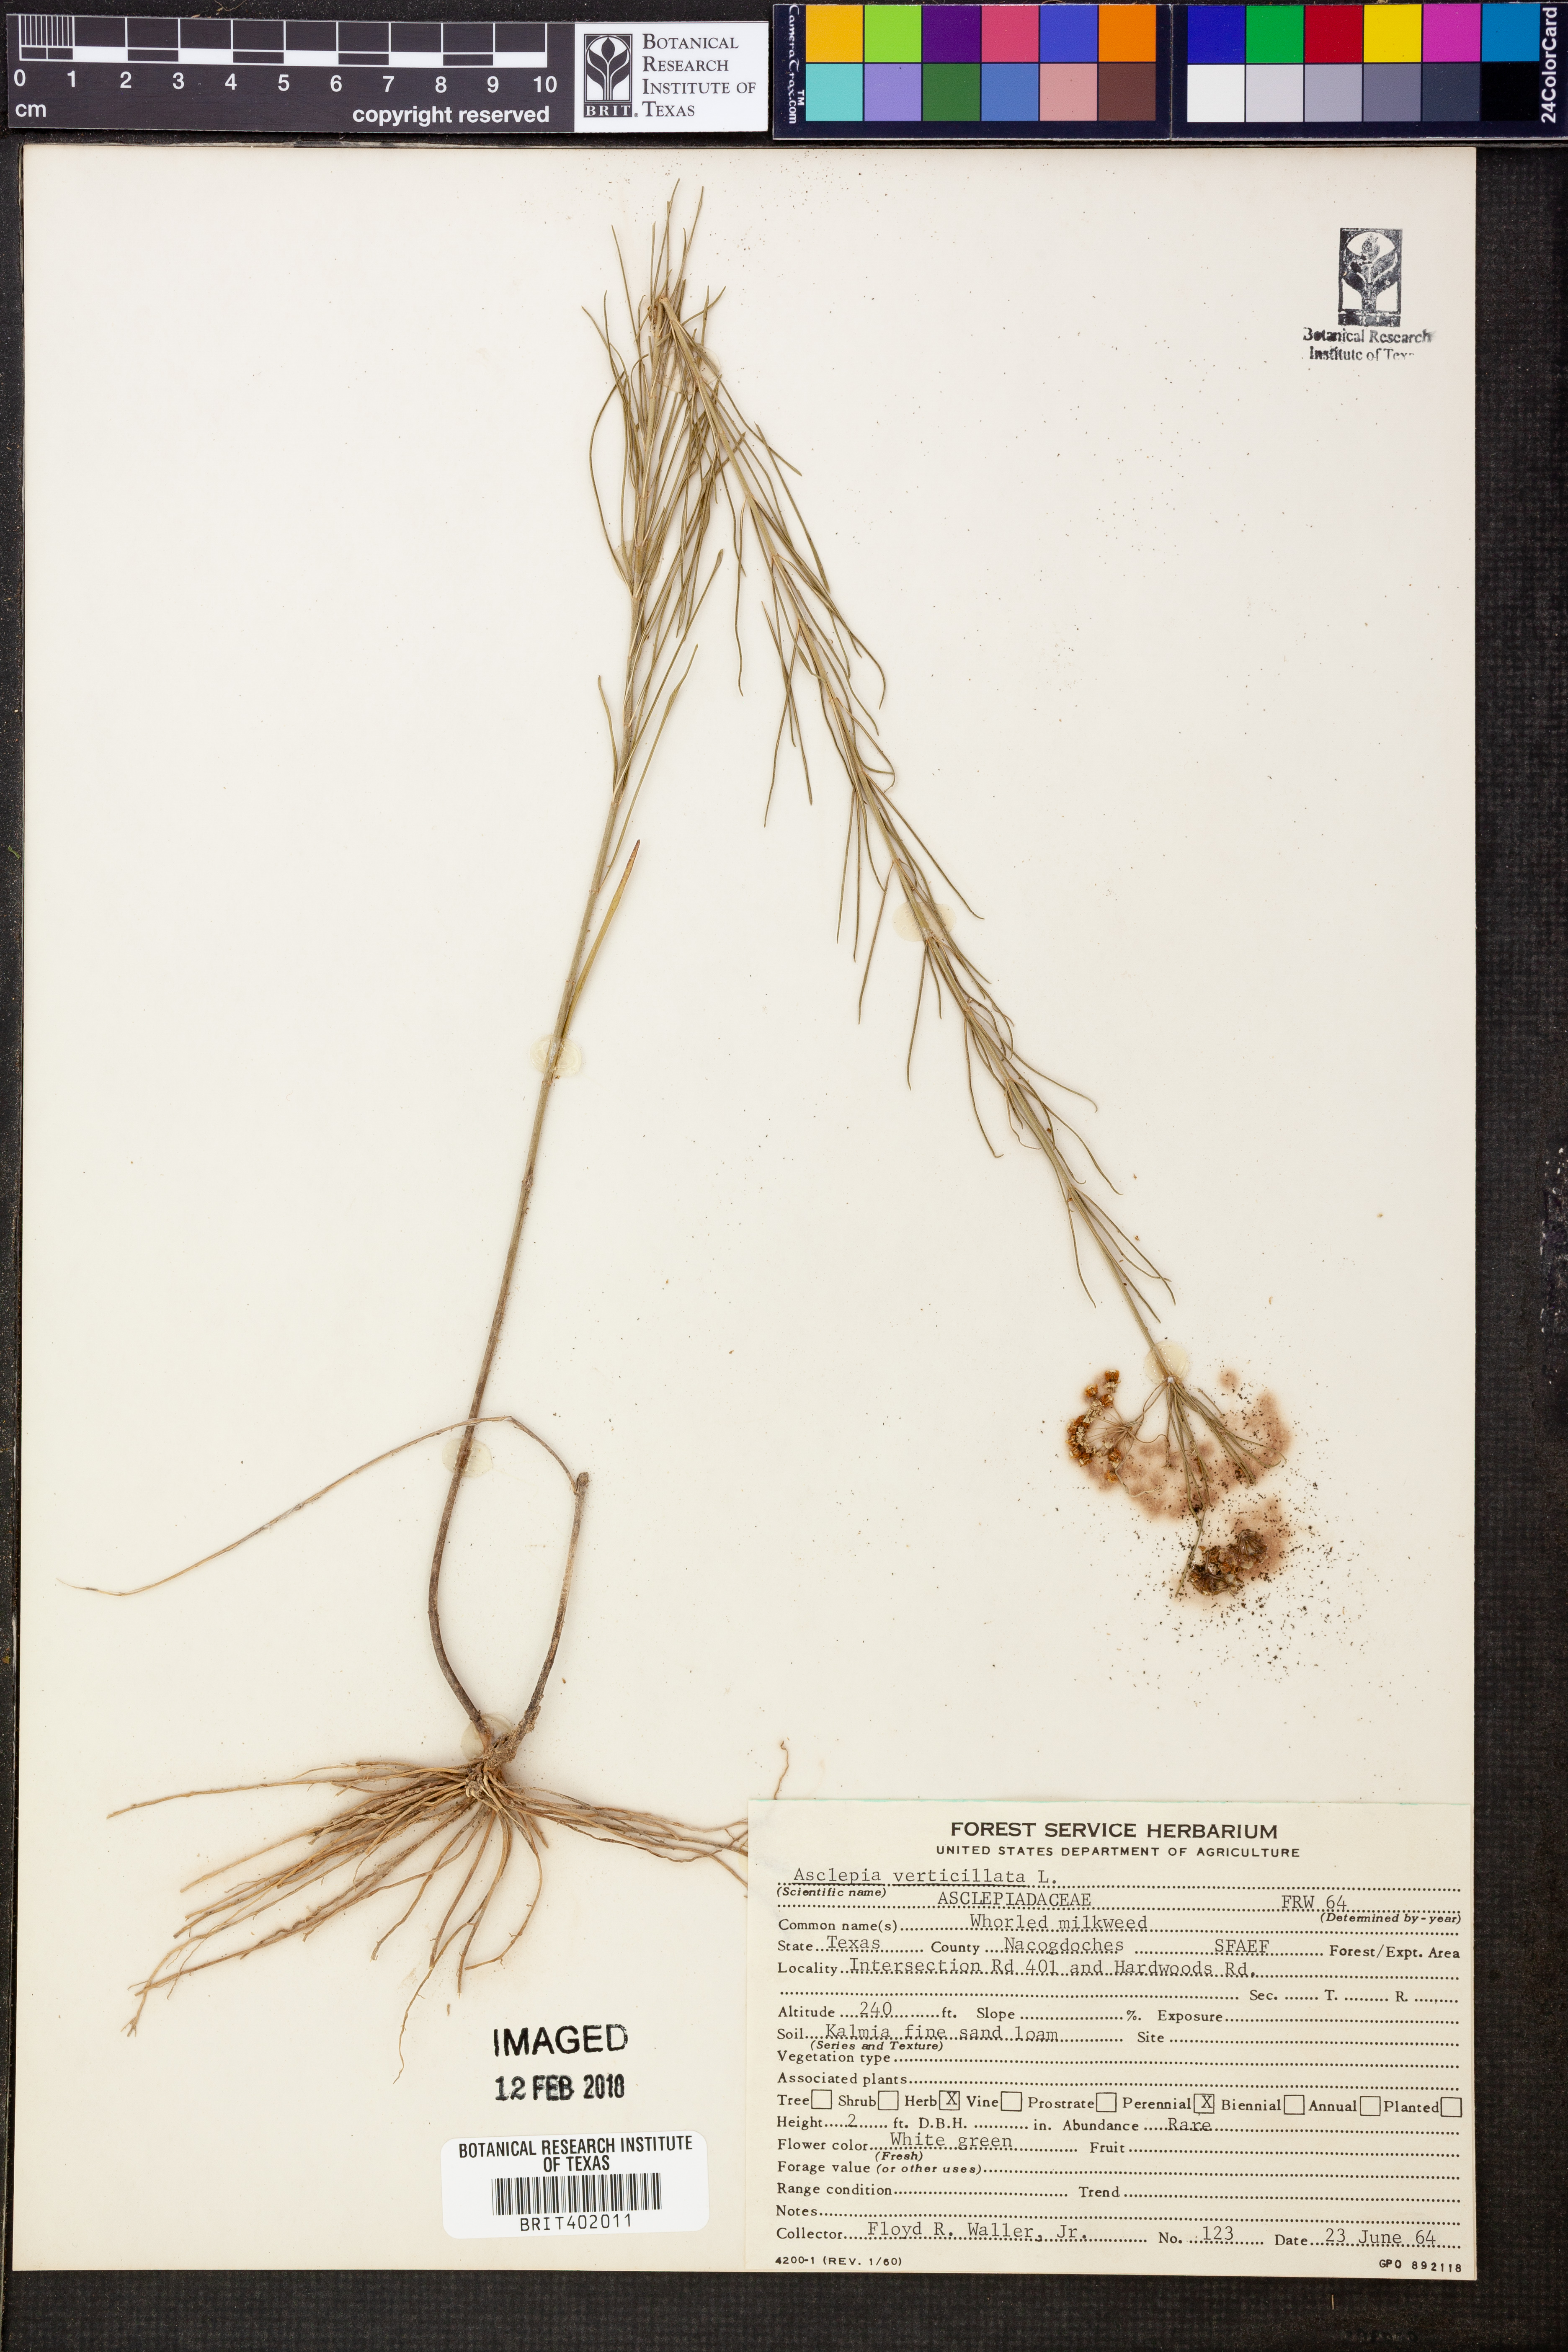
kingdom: Plantae
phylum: Tracheophyta
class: Magnoliopsida
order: Gentianales
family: Apocynaceae
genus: Asclepias
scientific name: Asclepias verticillata
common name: Eastern whorled milkweed
